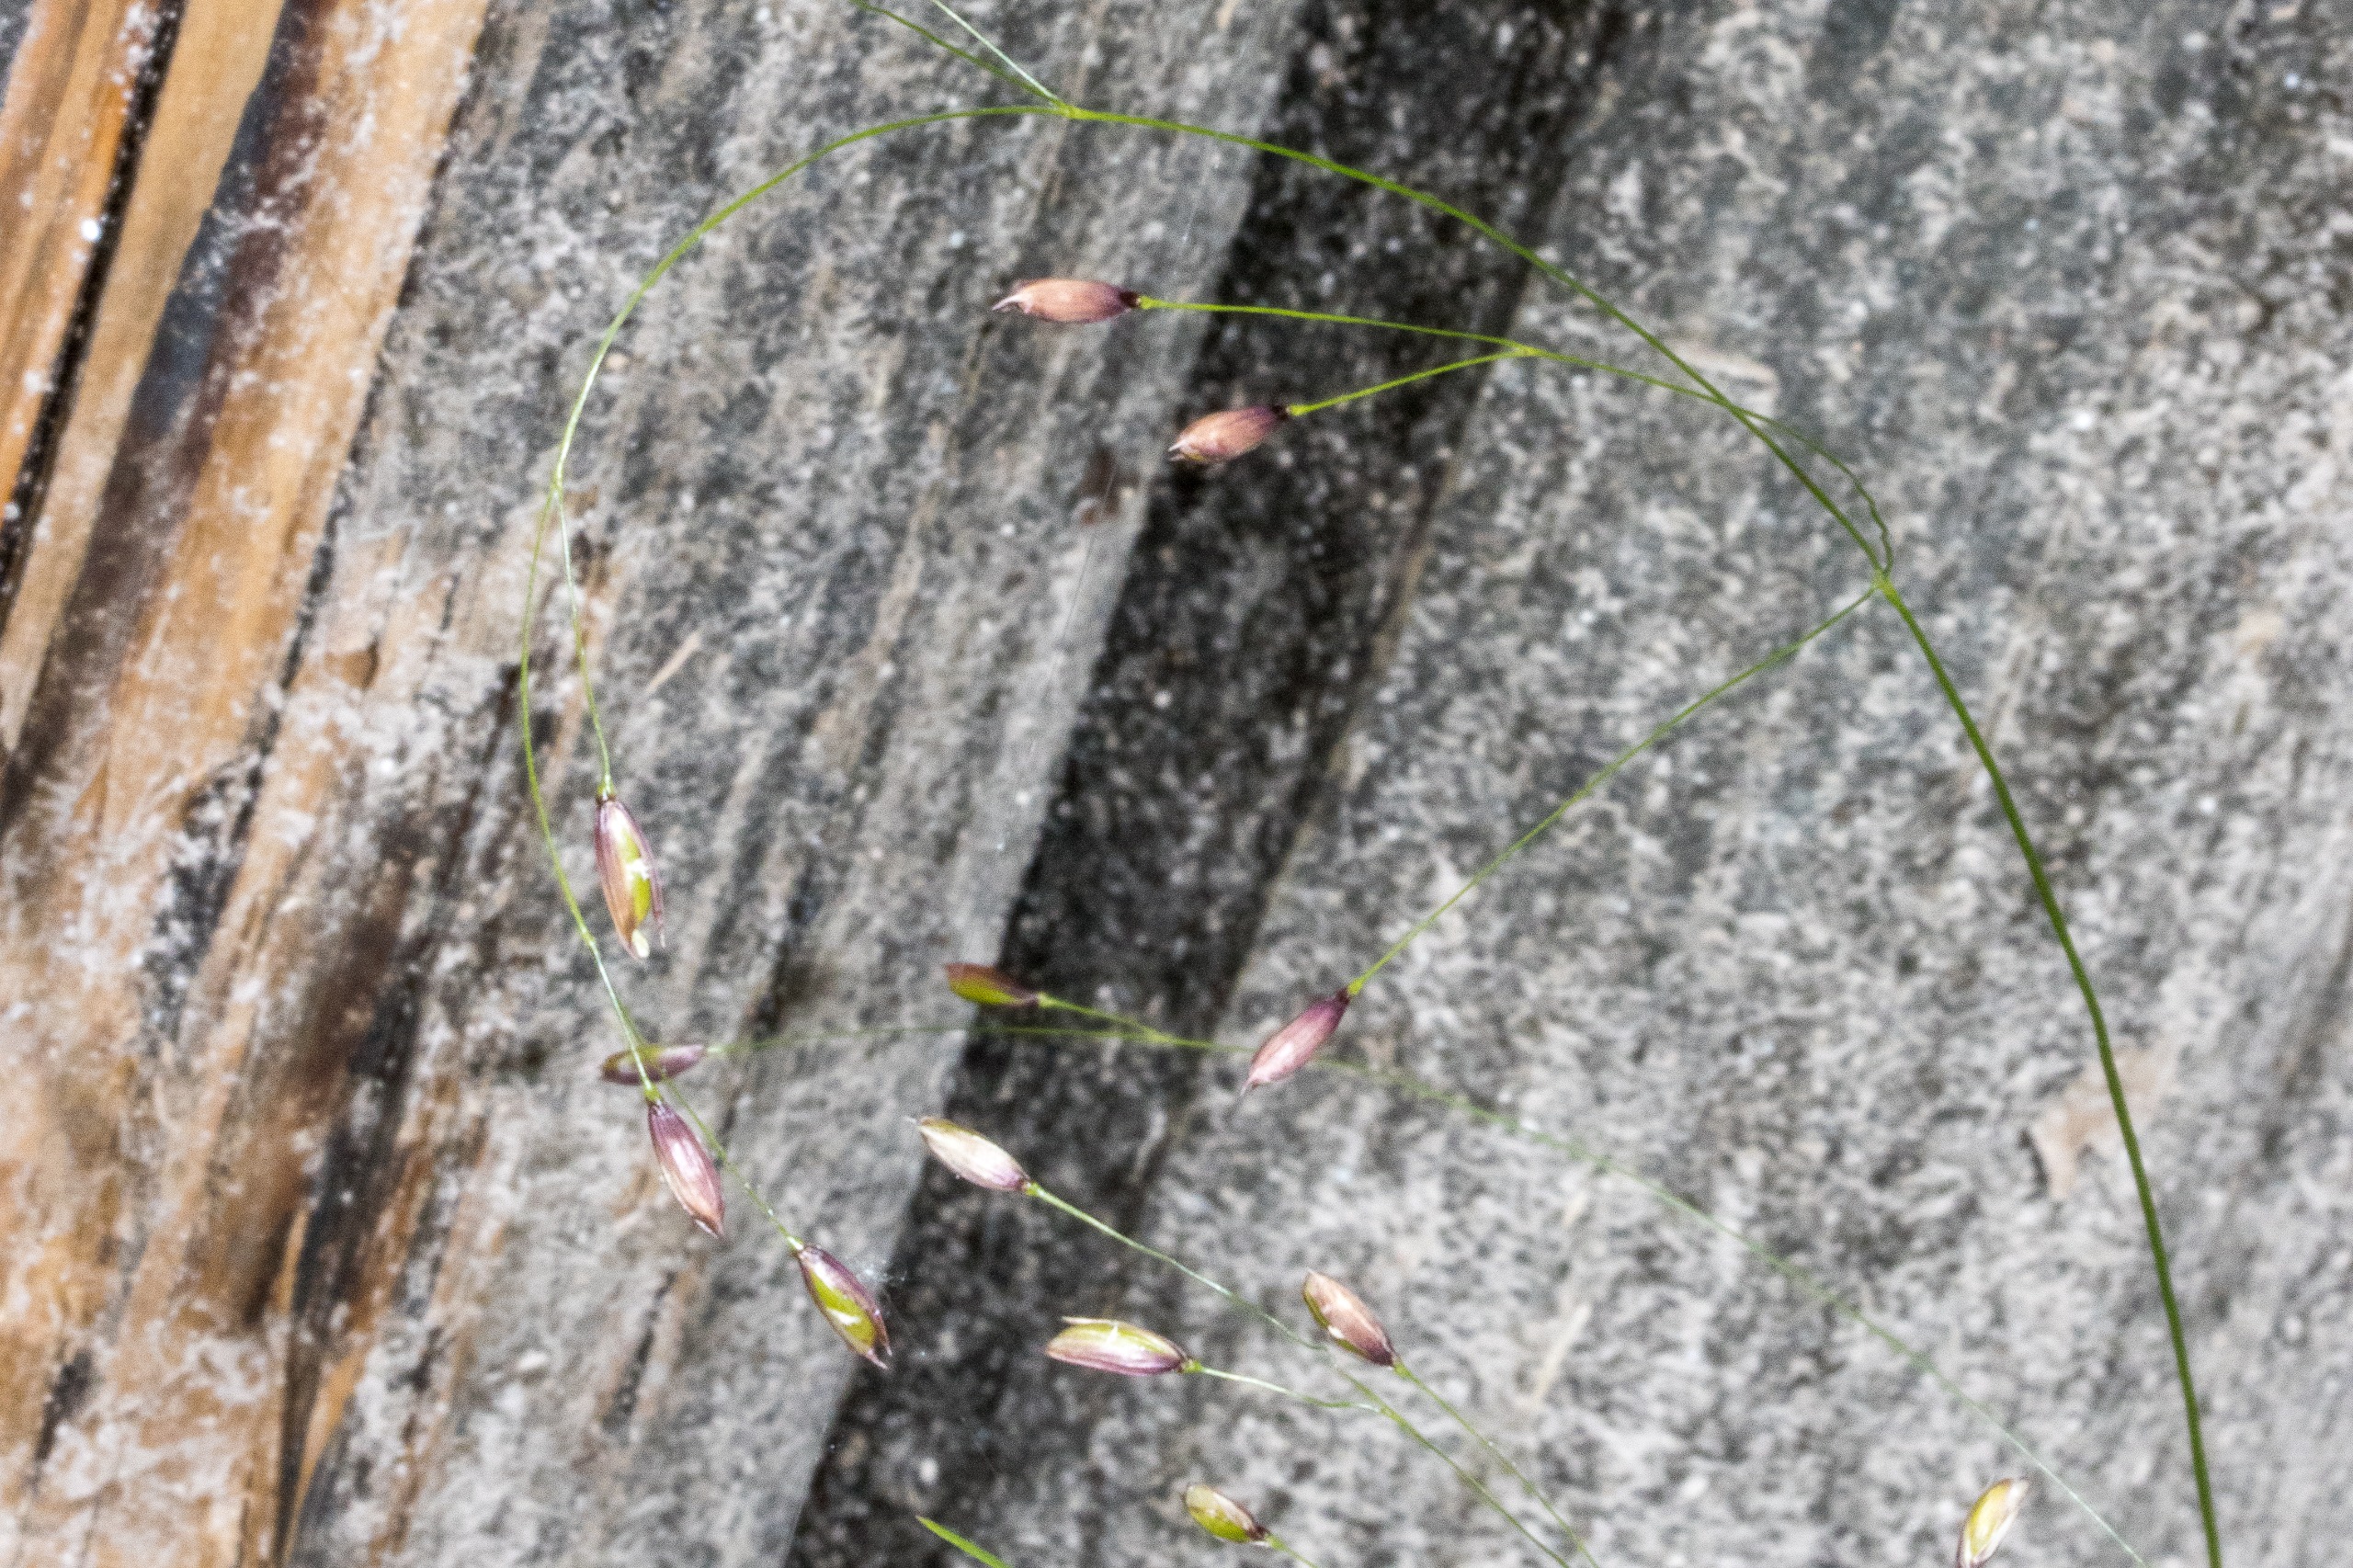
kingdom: Plantae
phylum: Tracheophyta
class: Liliopsida
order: Poales
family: Poaceae
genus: Melica
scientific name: Melica uniflora
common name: Enblomstret flitteraks
